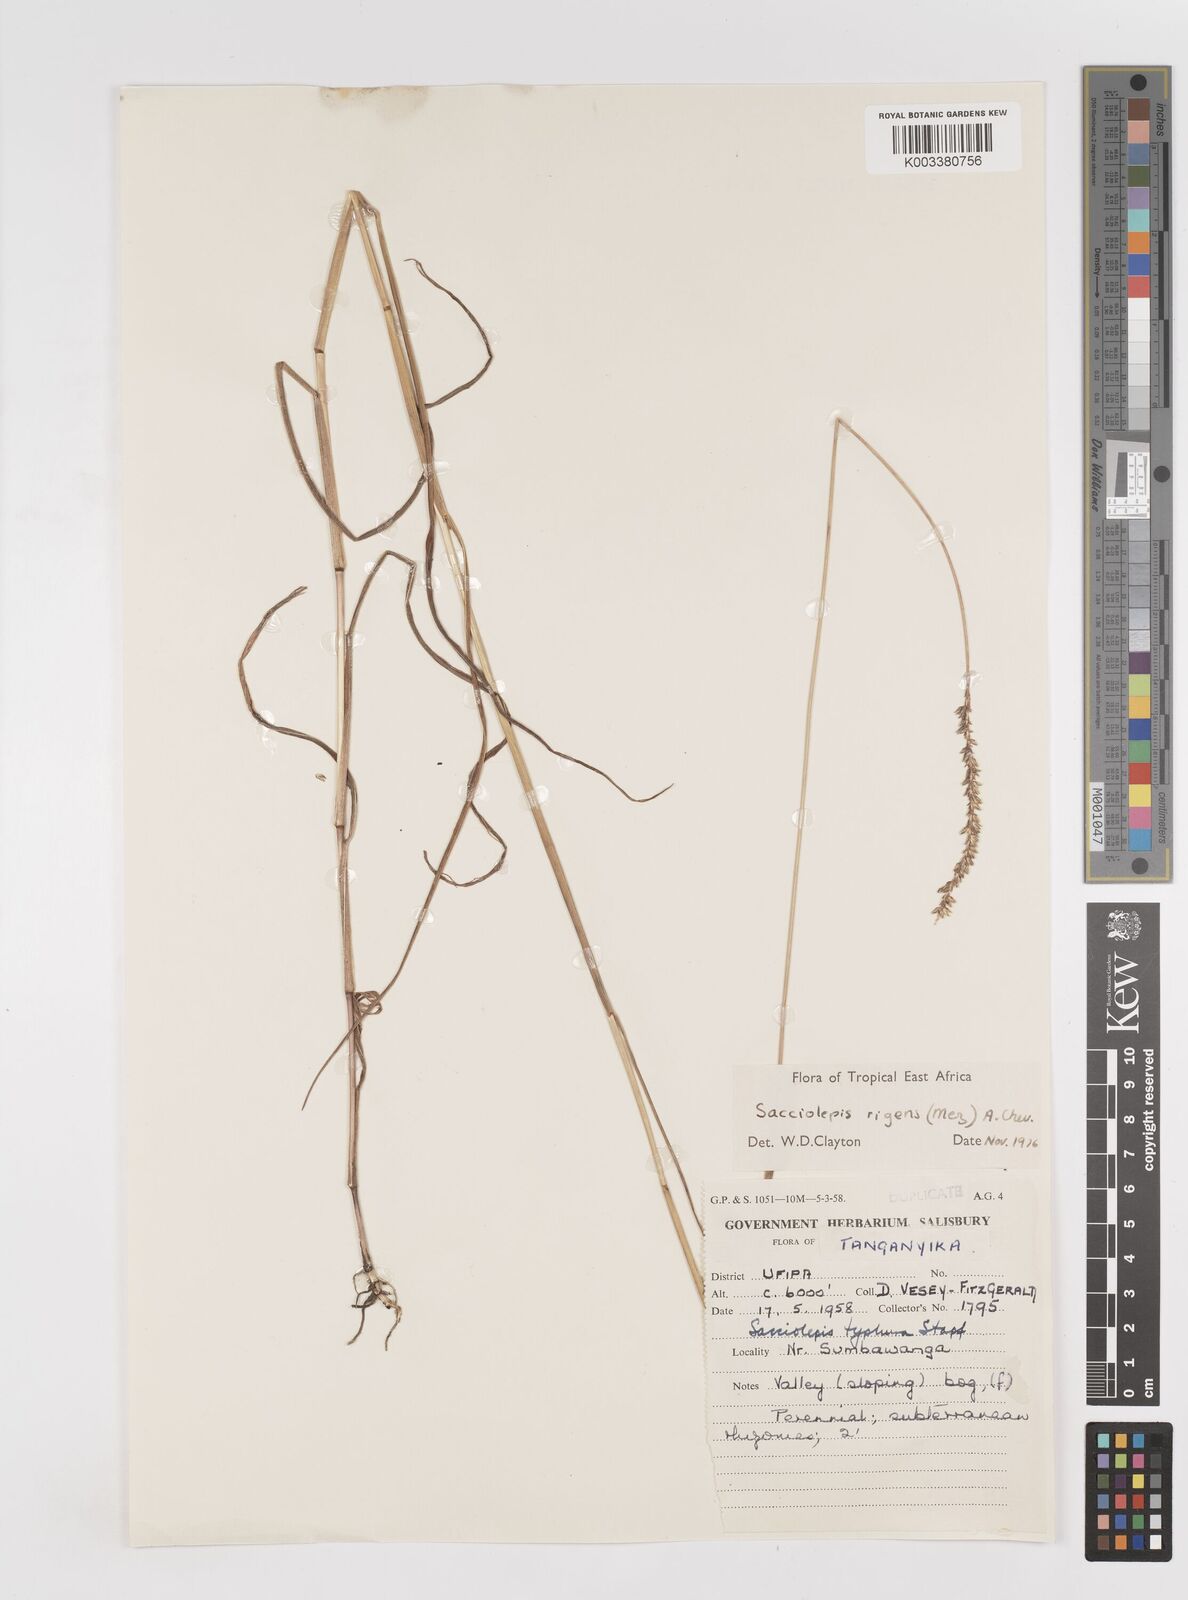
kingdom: Plantae
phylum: Tracheophyta
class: Liliopsida
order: Poales
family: Poaceae
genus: Sacciolepis
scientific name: Sacciolepis leptorrhachis
